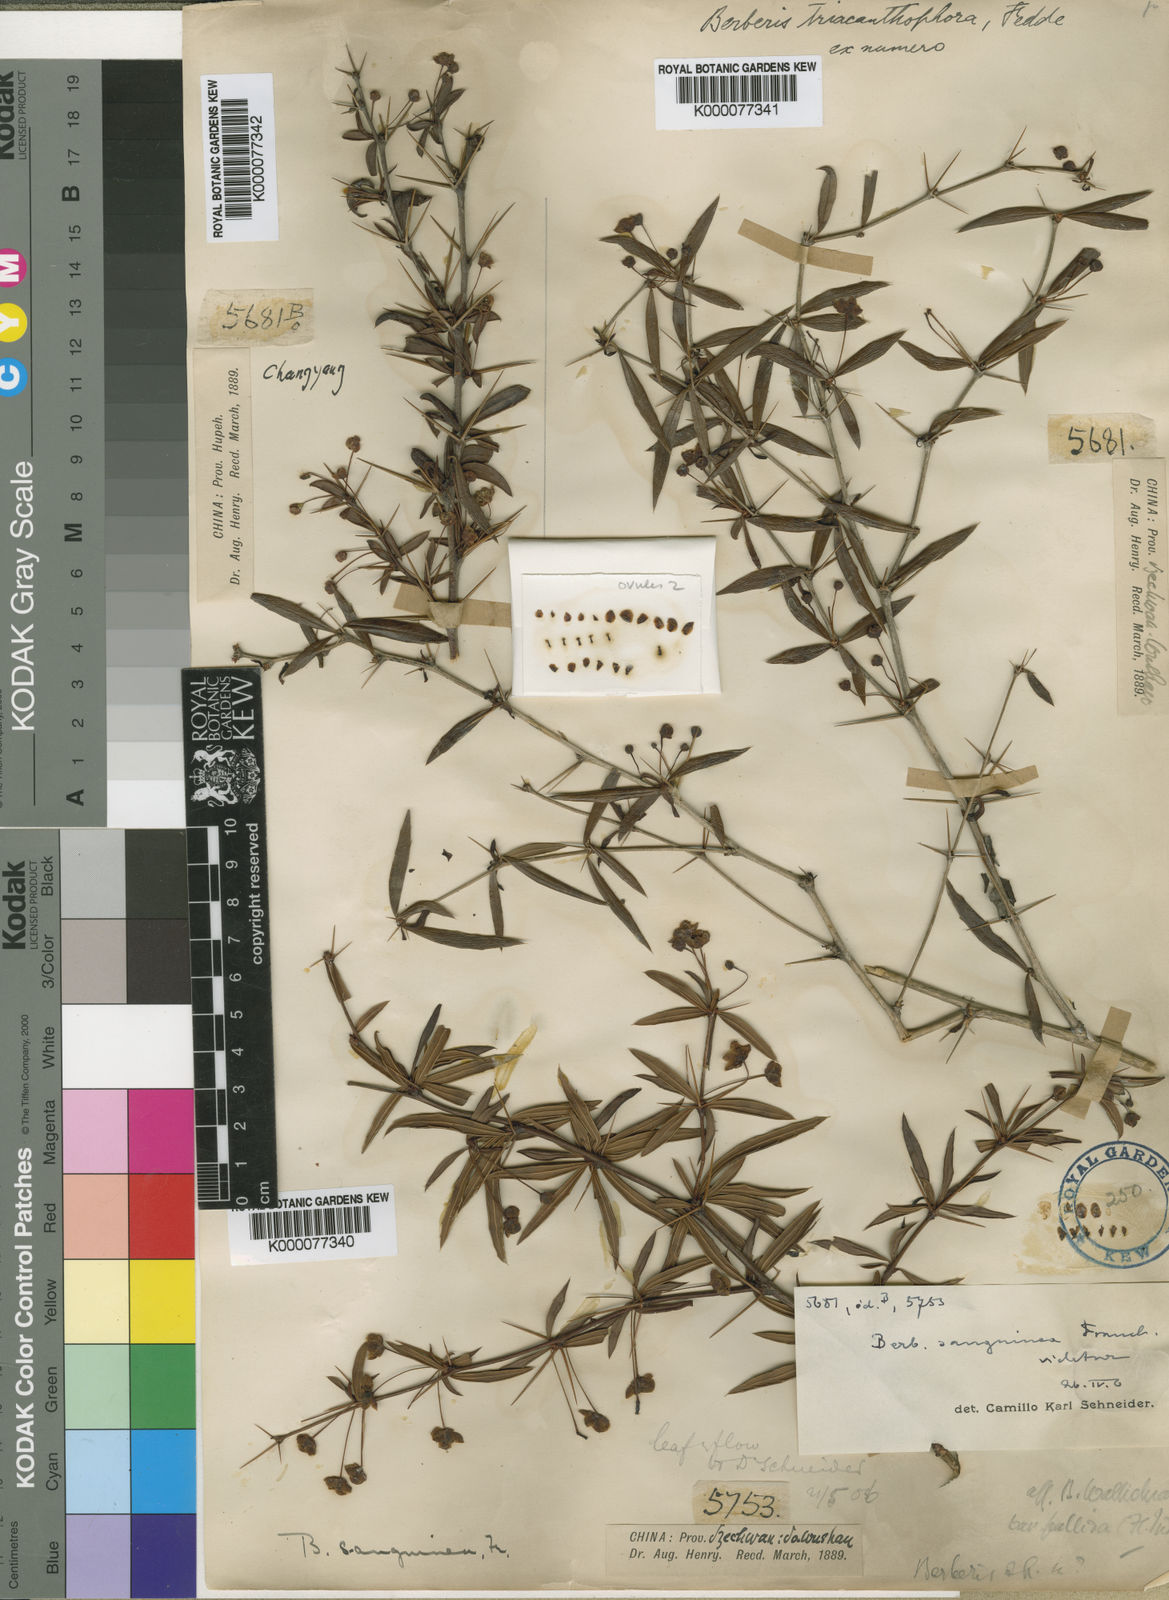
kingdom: Plantae
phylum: Tracheophyta
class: Magnoliopsida
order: Ranunculales
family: Berberidaceae
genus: Berberis
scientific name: Berberis triacanthophora
